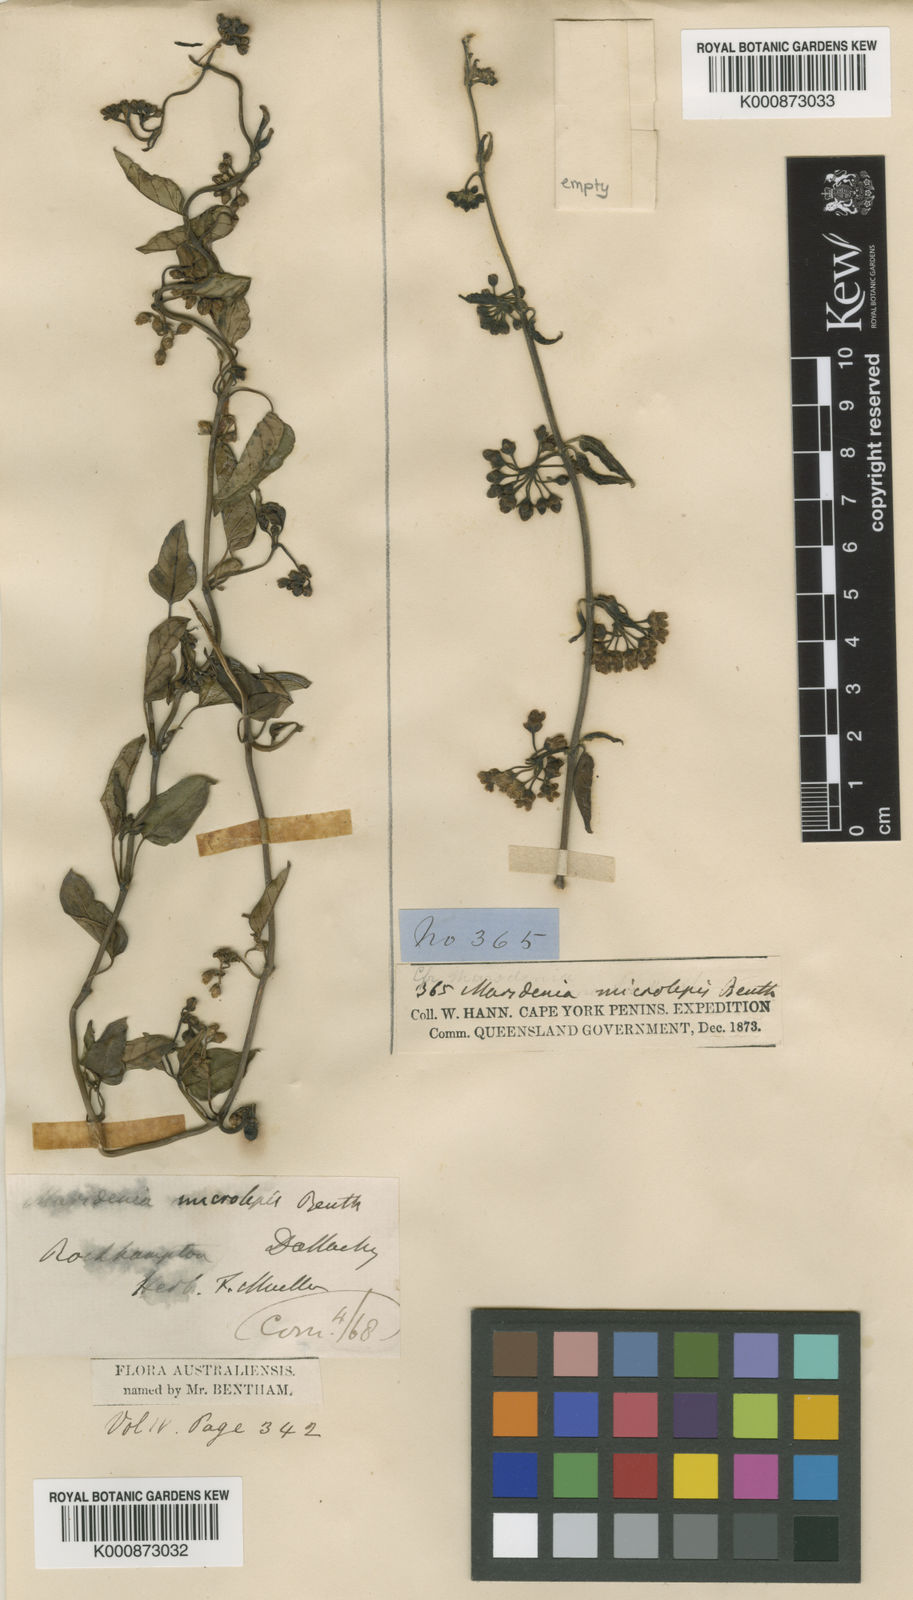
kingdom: Plantae
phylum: Tracheophyta
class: Magnoliopsida
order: Gentianales
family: Apocynaceae
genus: Leichhardtia
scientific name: Leichhardtia microlepis
